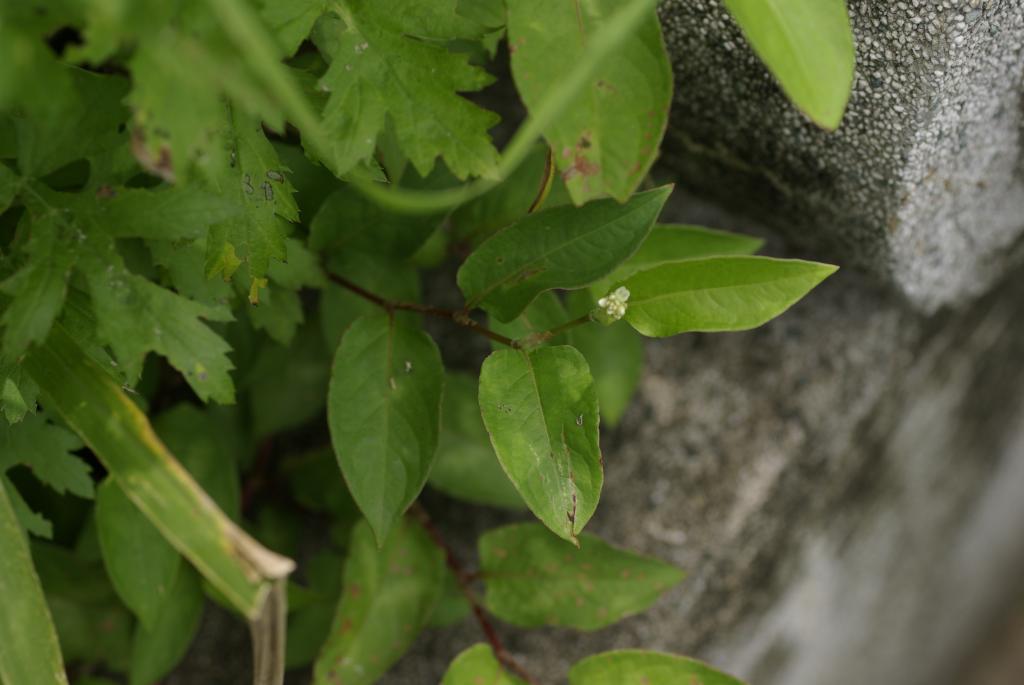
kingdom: Plantae
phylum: Tracheophyta
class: Magnoliopsida
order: Caryophyllales
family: Polygonaceae
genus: Persicaria
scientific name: Persicaria chinensis
